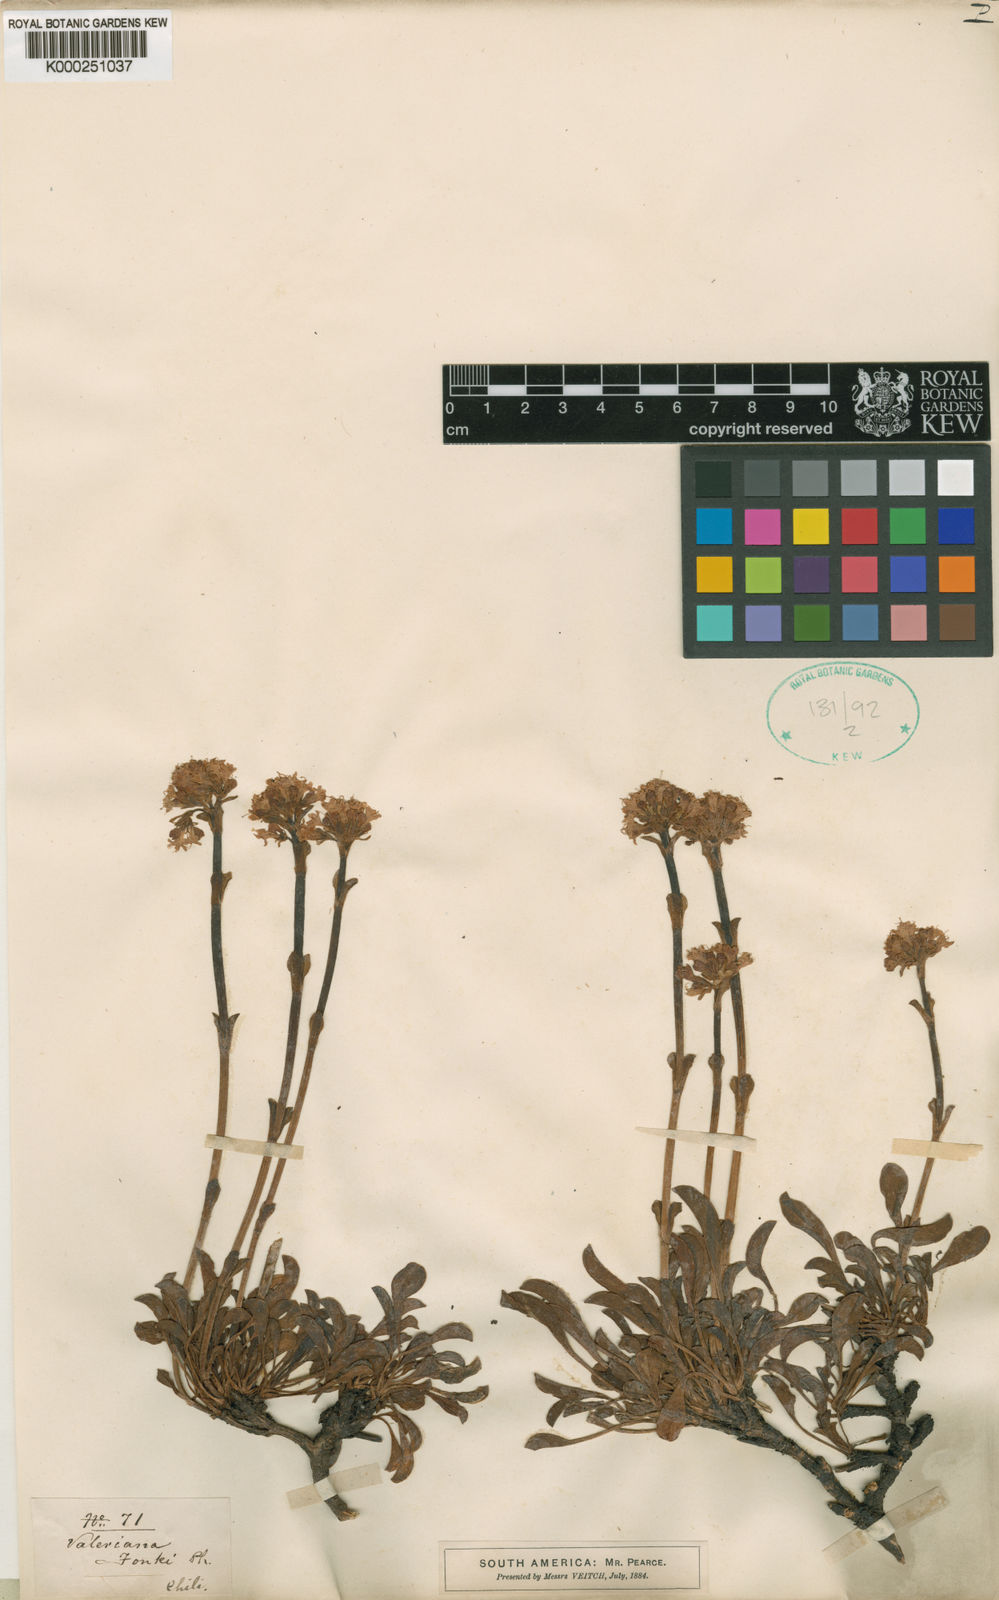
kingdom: Plantae
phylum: Tracheophyta
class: Magnoliopsida
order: Dipsacales
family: Caprifoliaceae
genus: Valeriana
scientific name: Valeriana
